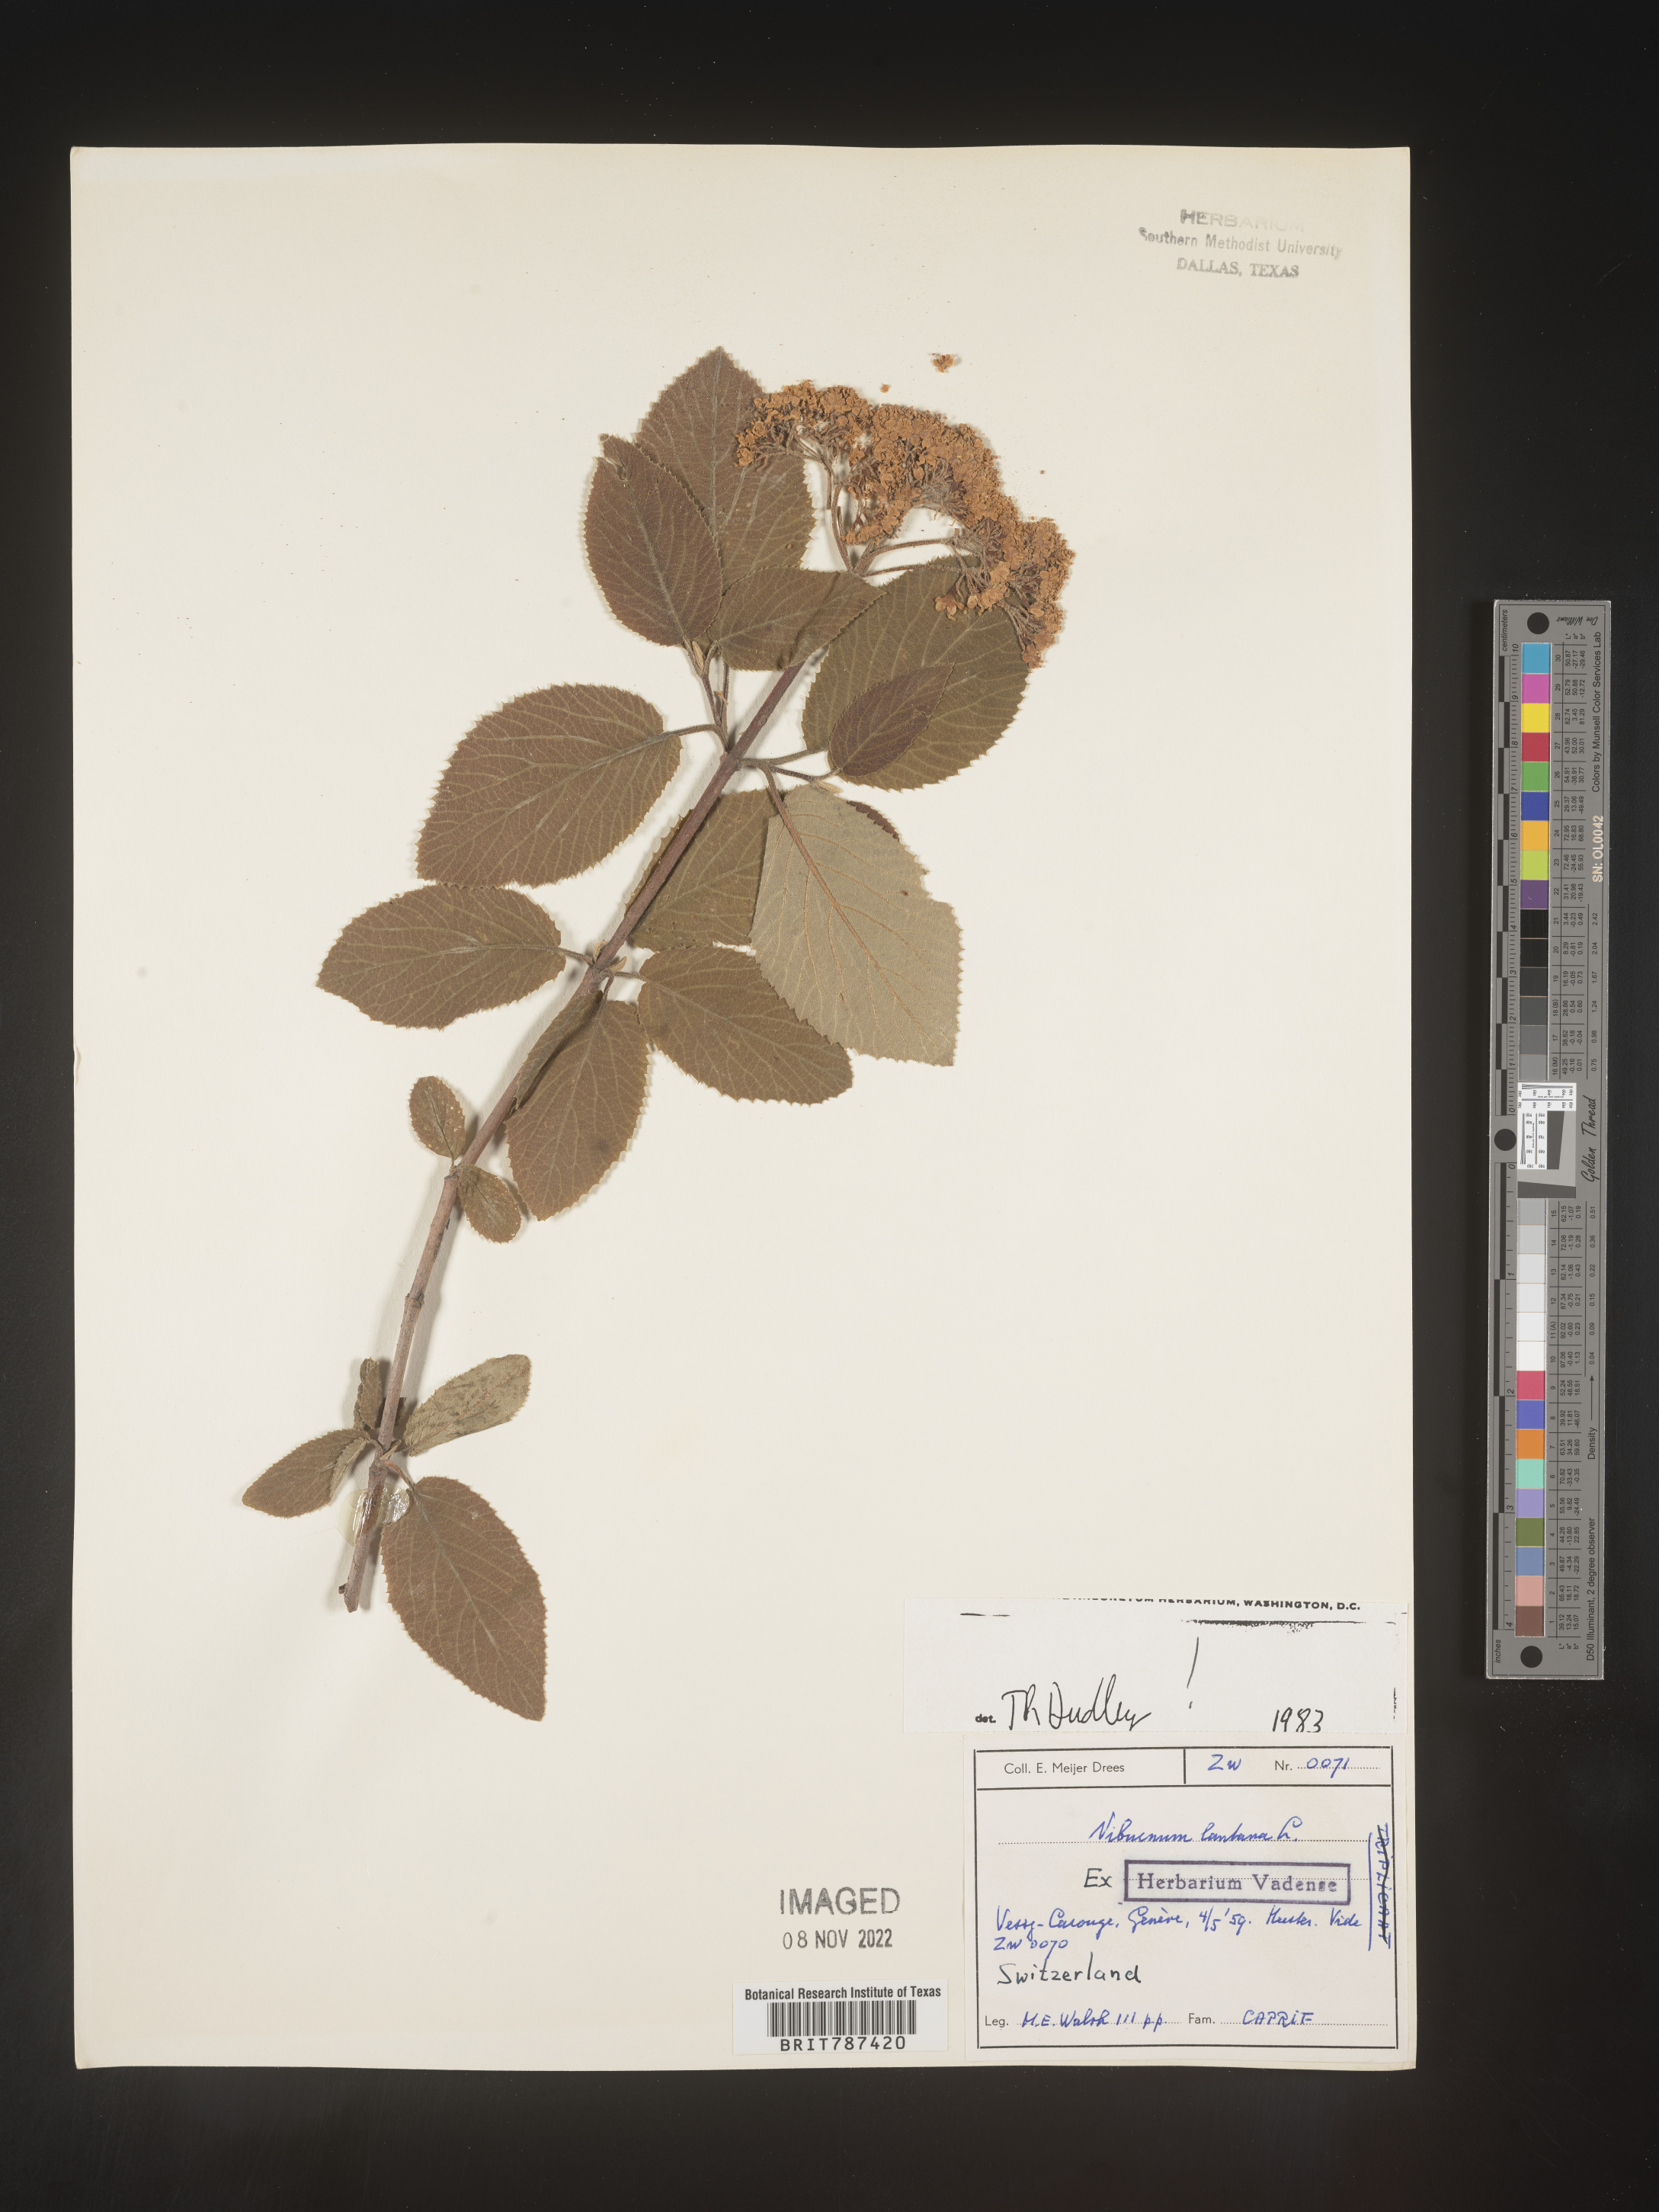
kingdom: Plantae
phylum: Tracheophyta
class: Magnoliopsida
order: Dipsacales
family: Viburnaceae
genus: Viburnum
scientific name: Viburnum
